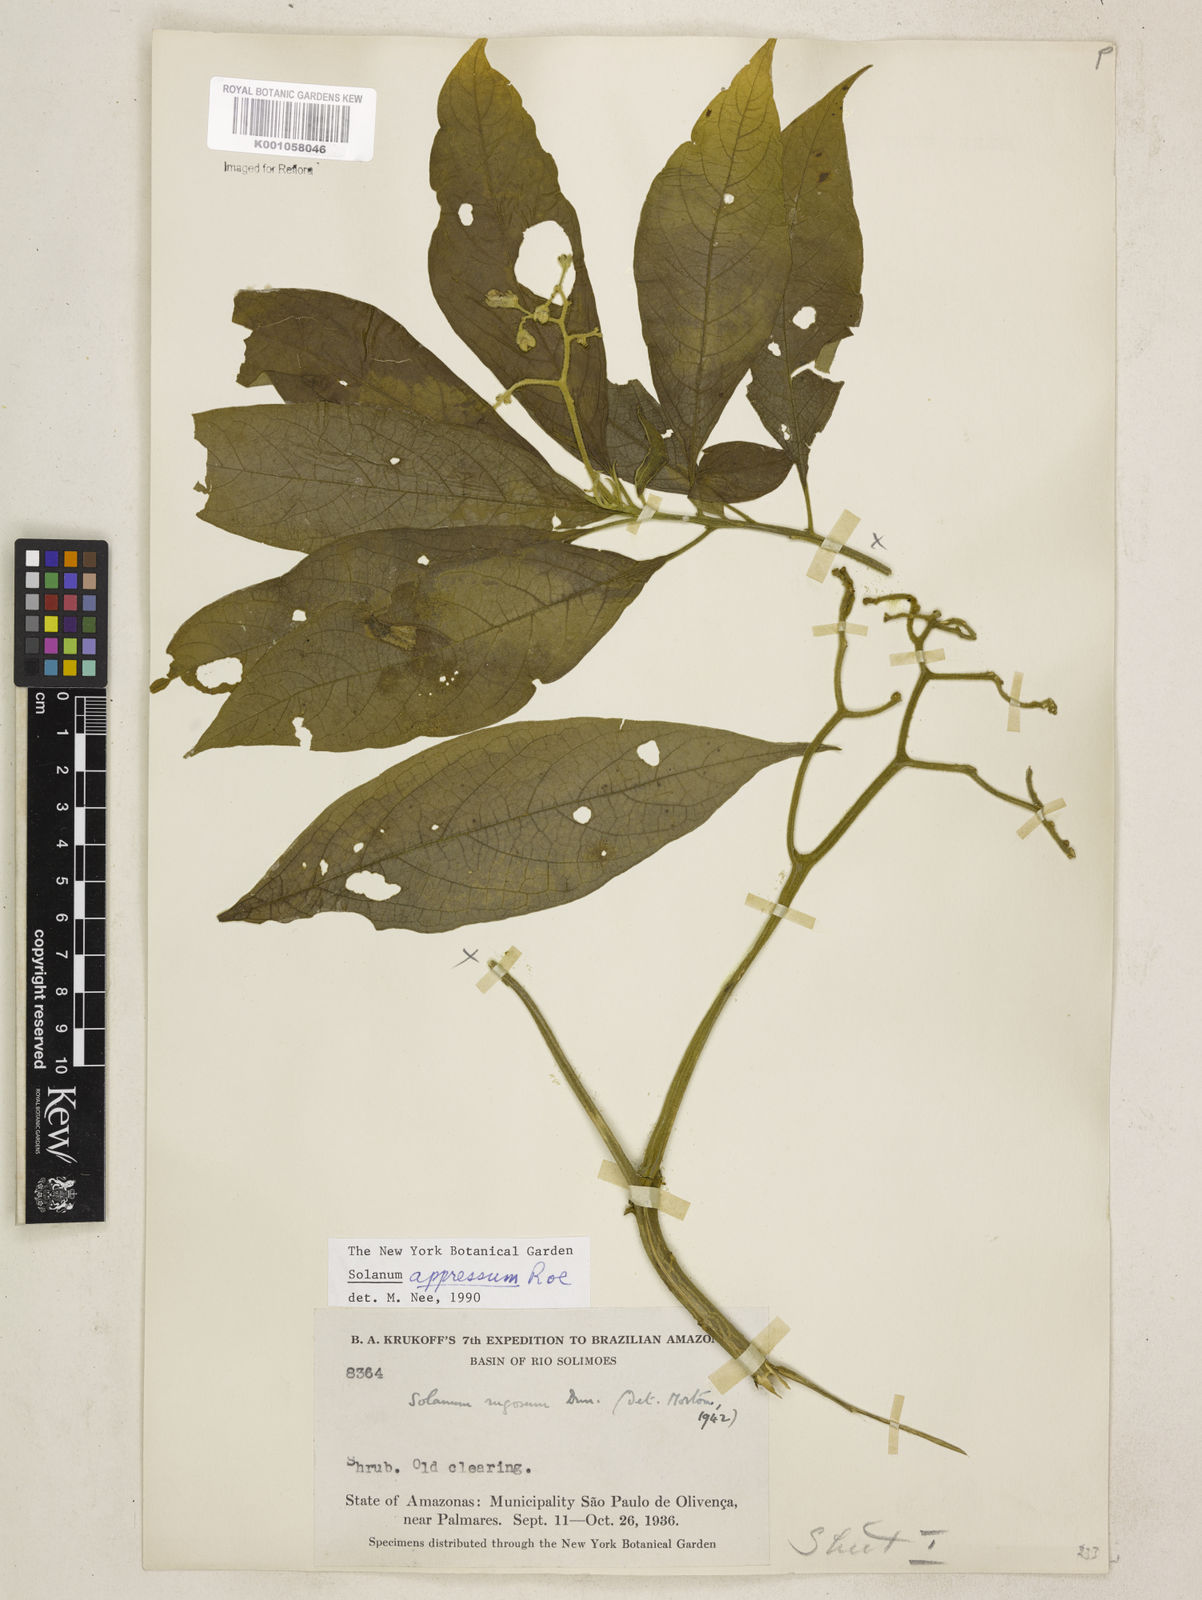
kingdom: Plantae
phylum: Tracheophyta
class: Magnoliopsida
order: Solanales
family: Solanaceae
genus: Solanum
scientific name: Solanum appressum
